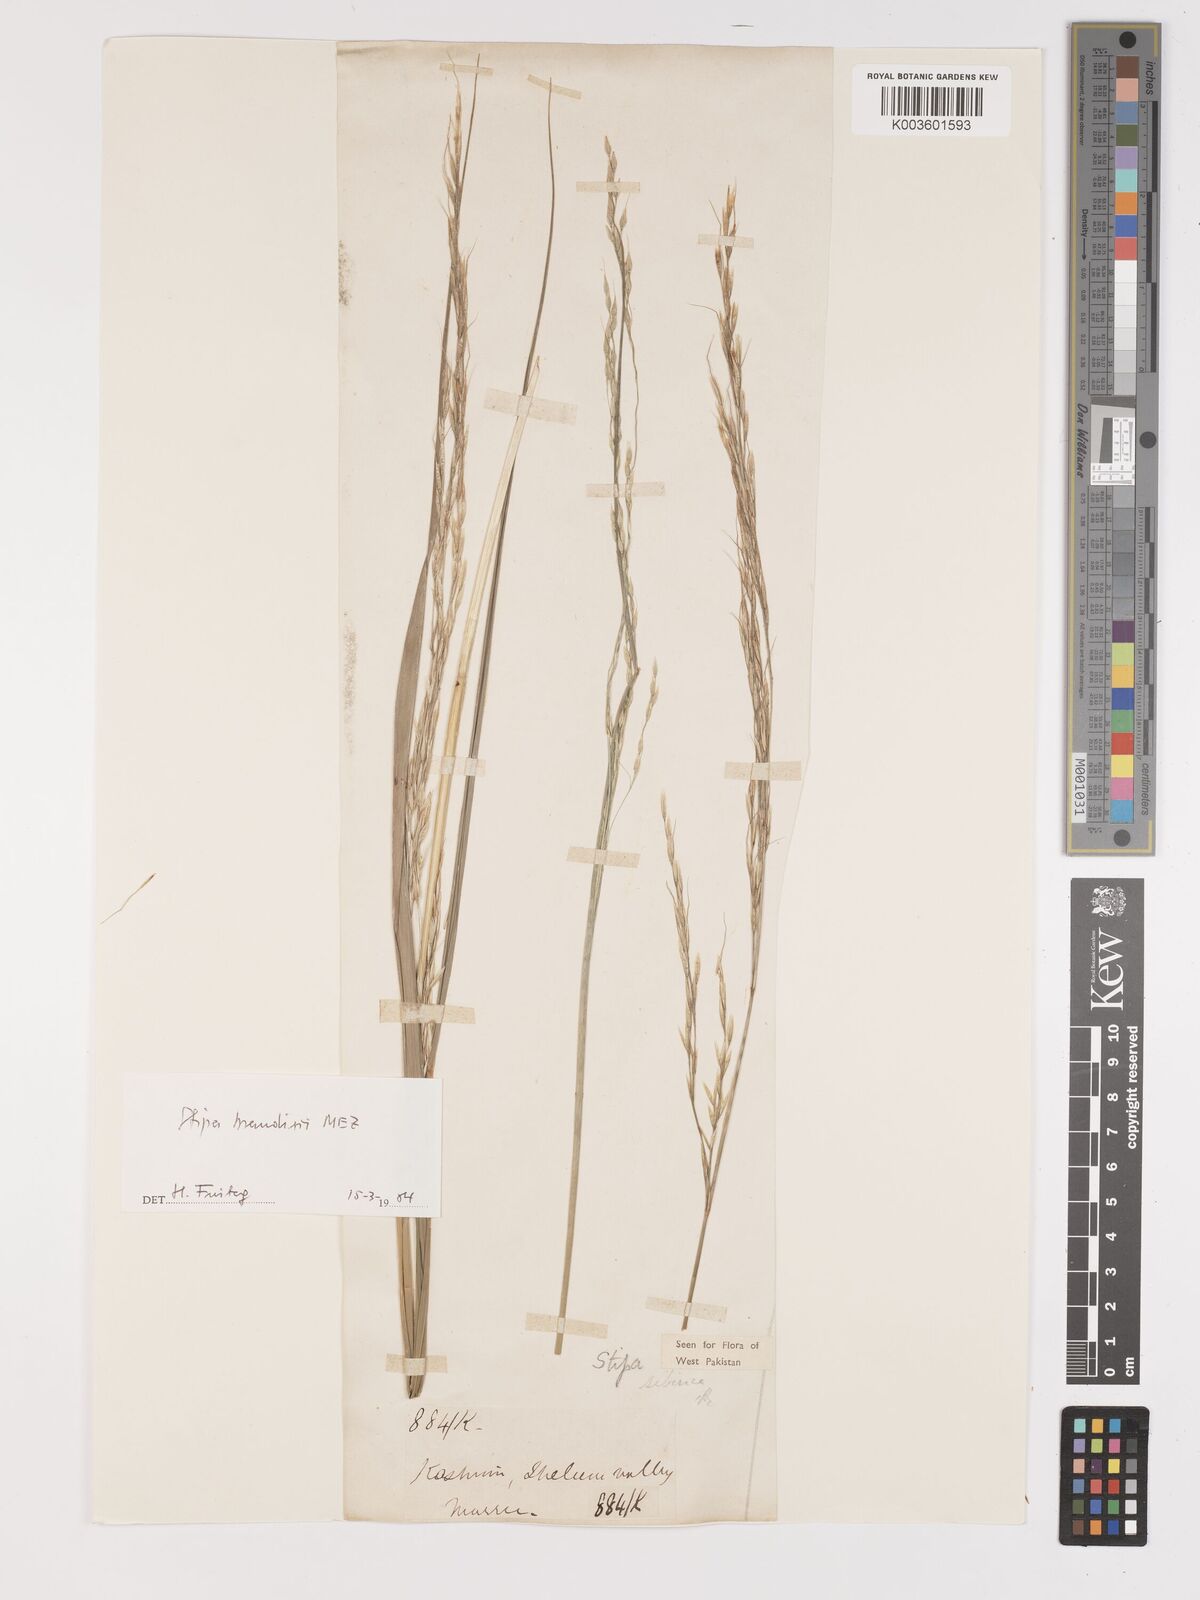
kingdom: Plantae
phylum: Tracheophyta
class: Liliopsida
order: Poales
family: Poaceae
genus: Achnatherum
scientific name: Achnatherum brandisii
